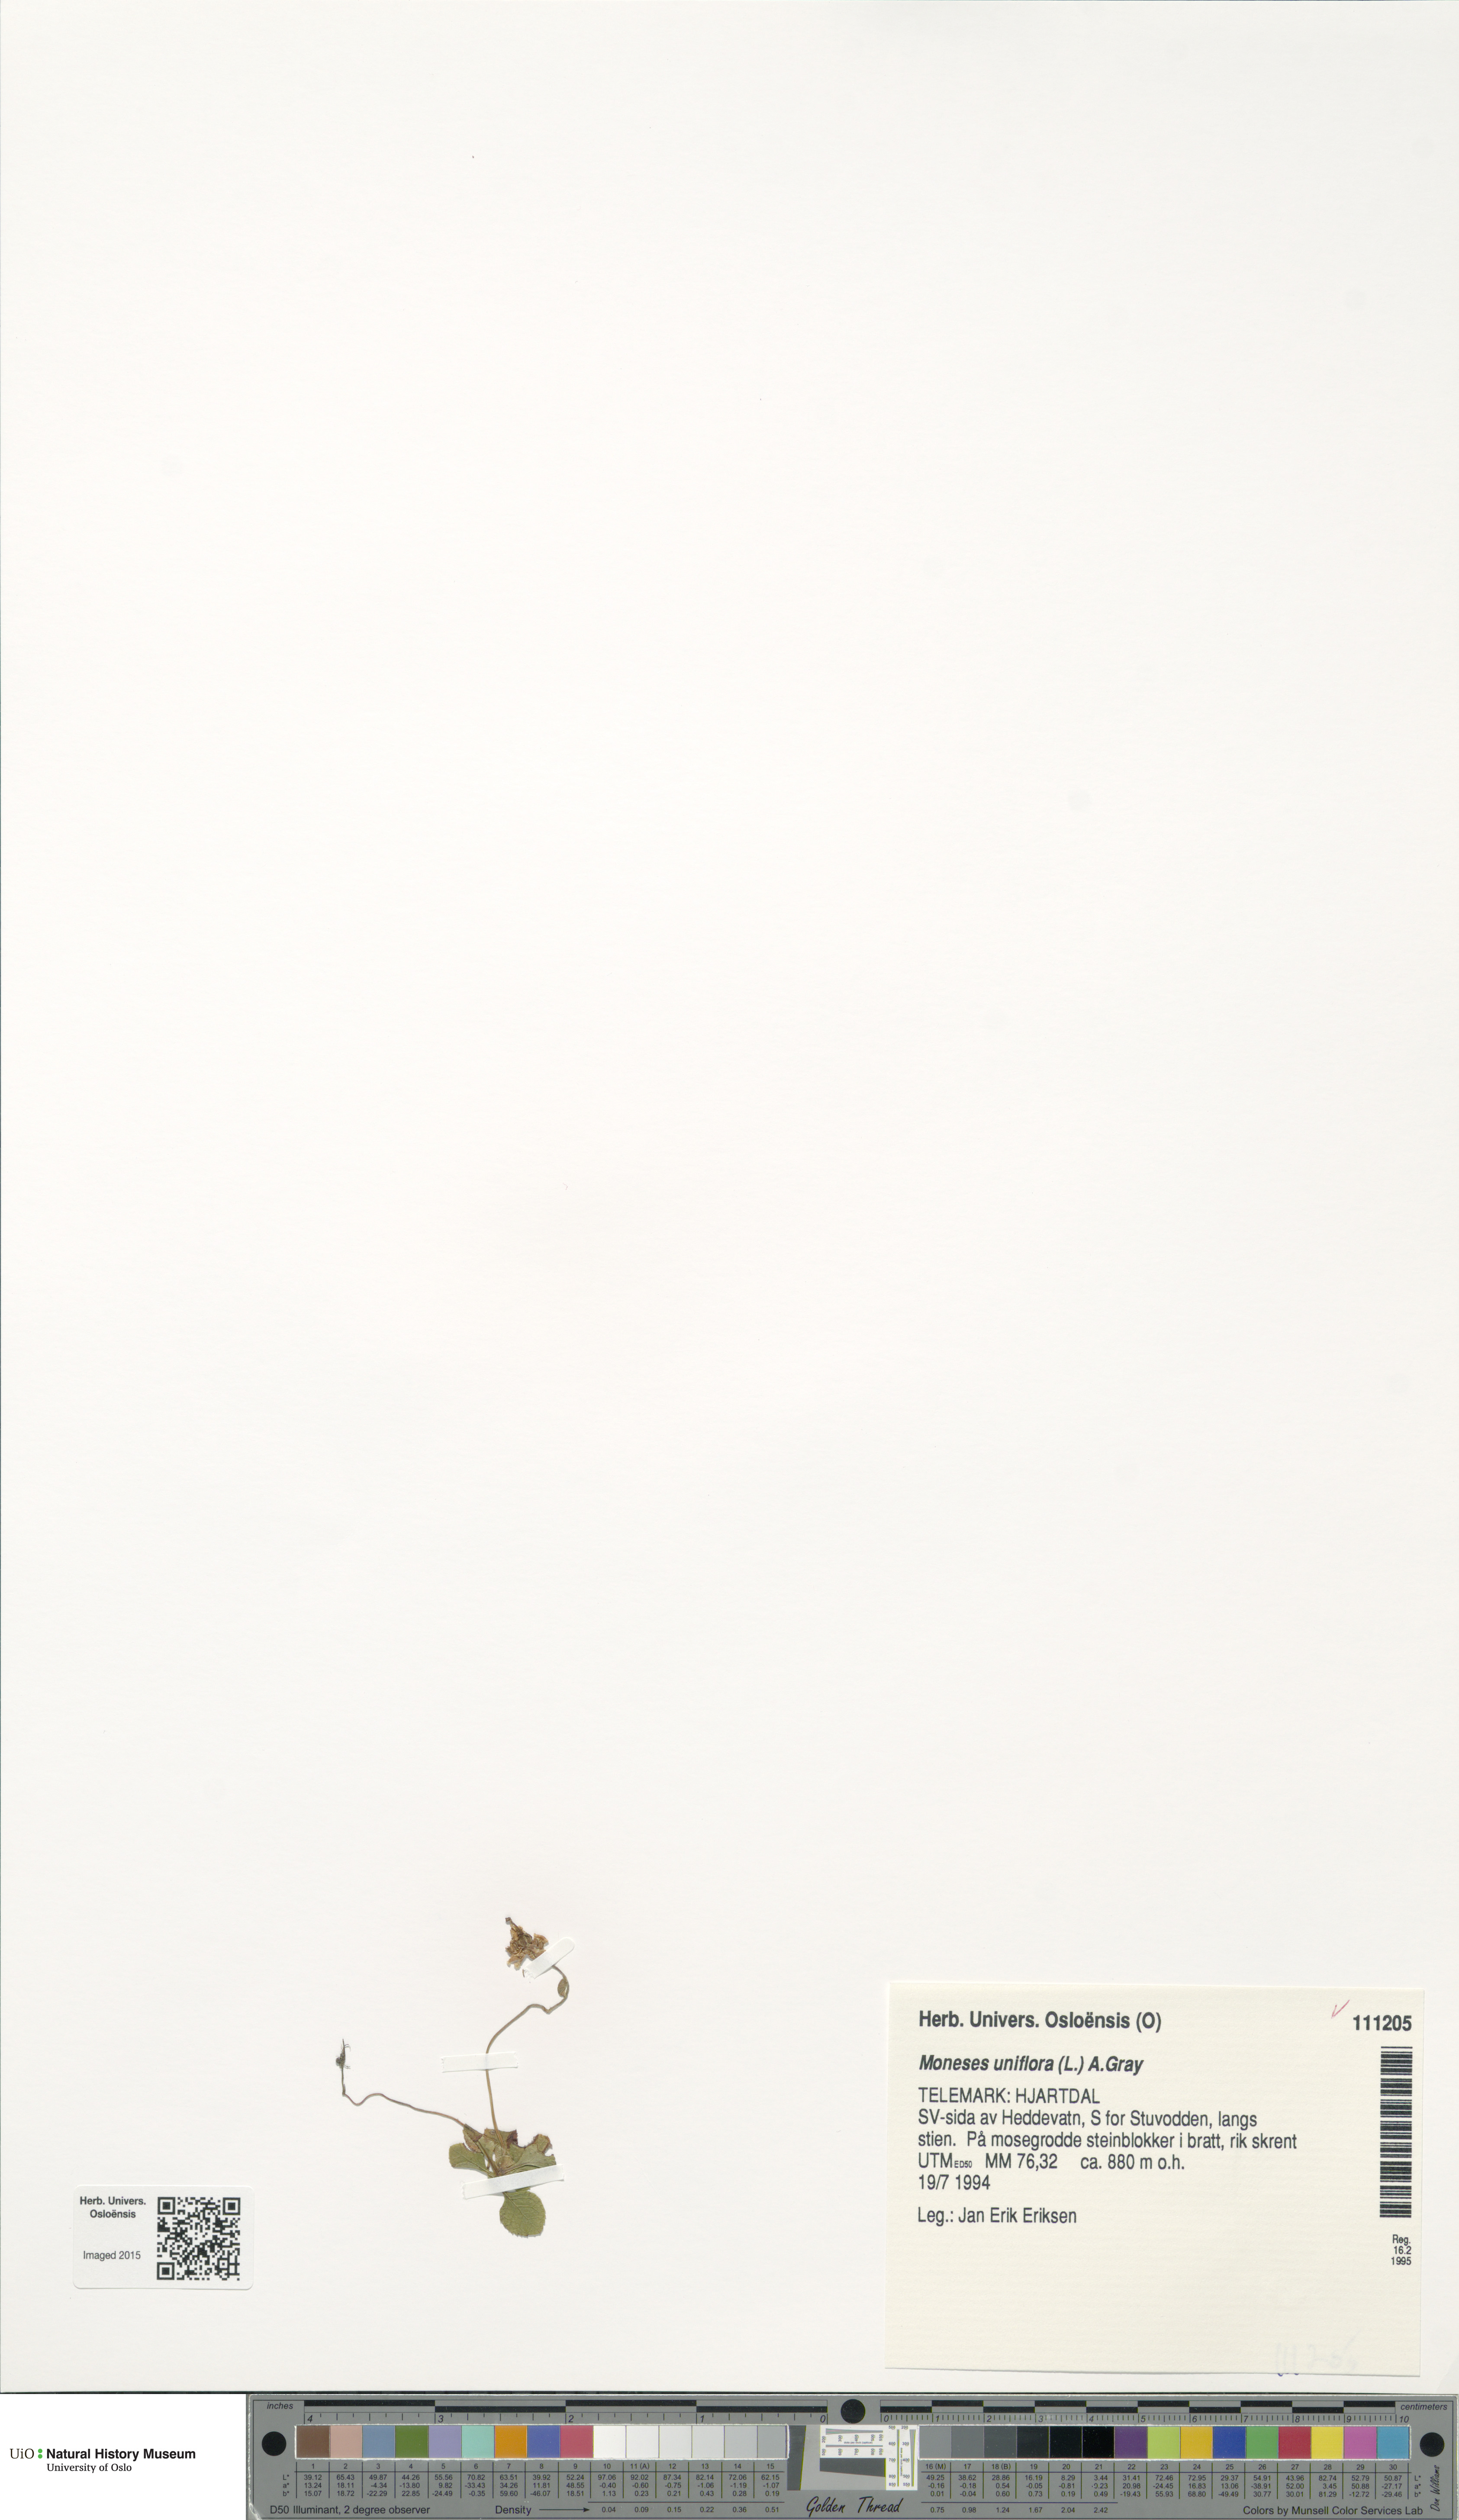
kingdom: Plantae
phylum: Tracheophyta
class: Magnoliopsida
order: Ericales
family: Ericaceae
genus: Moneses
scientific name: Moneses uniflora
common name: One-flowered wintergreen
